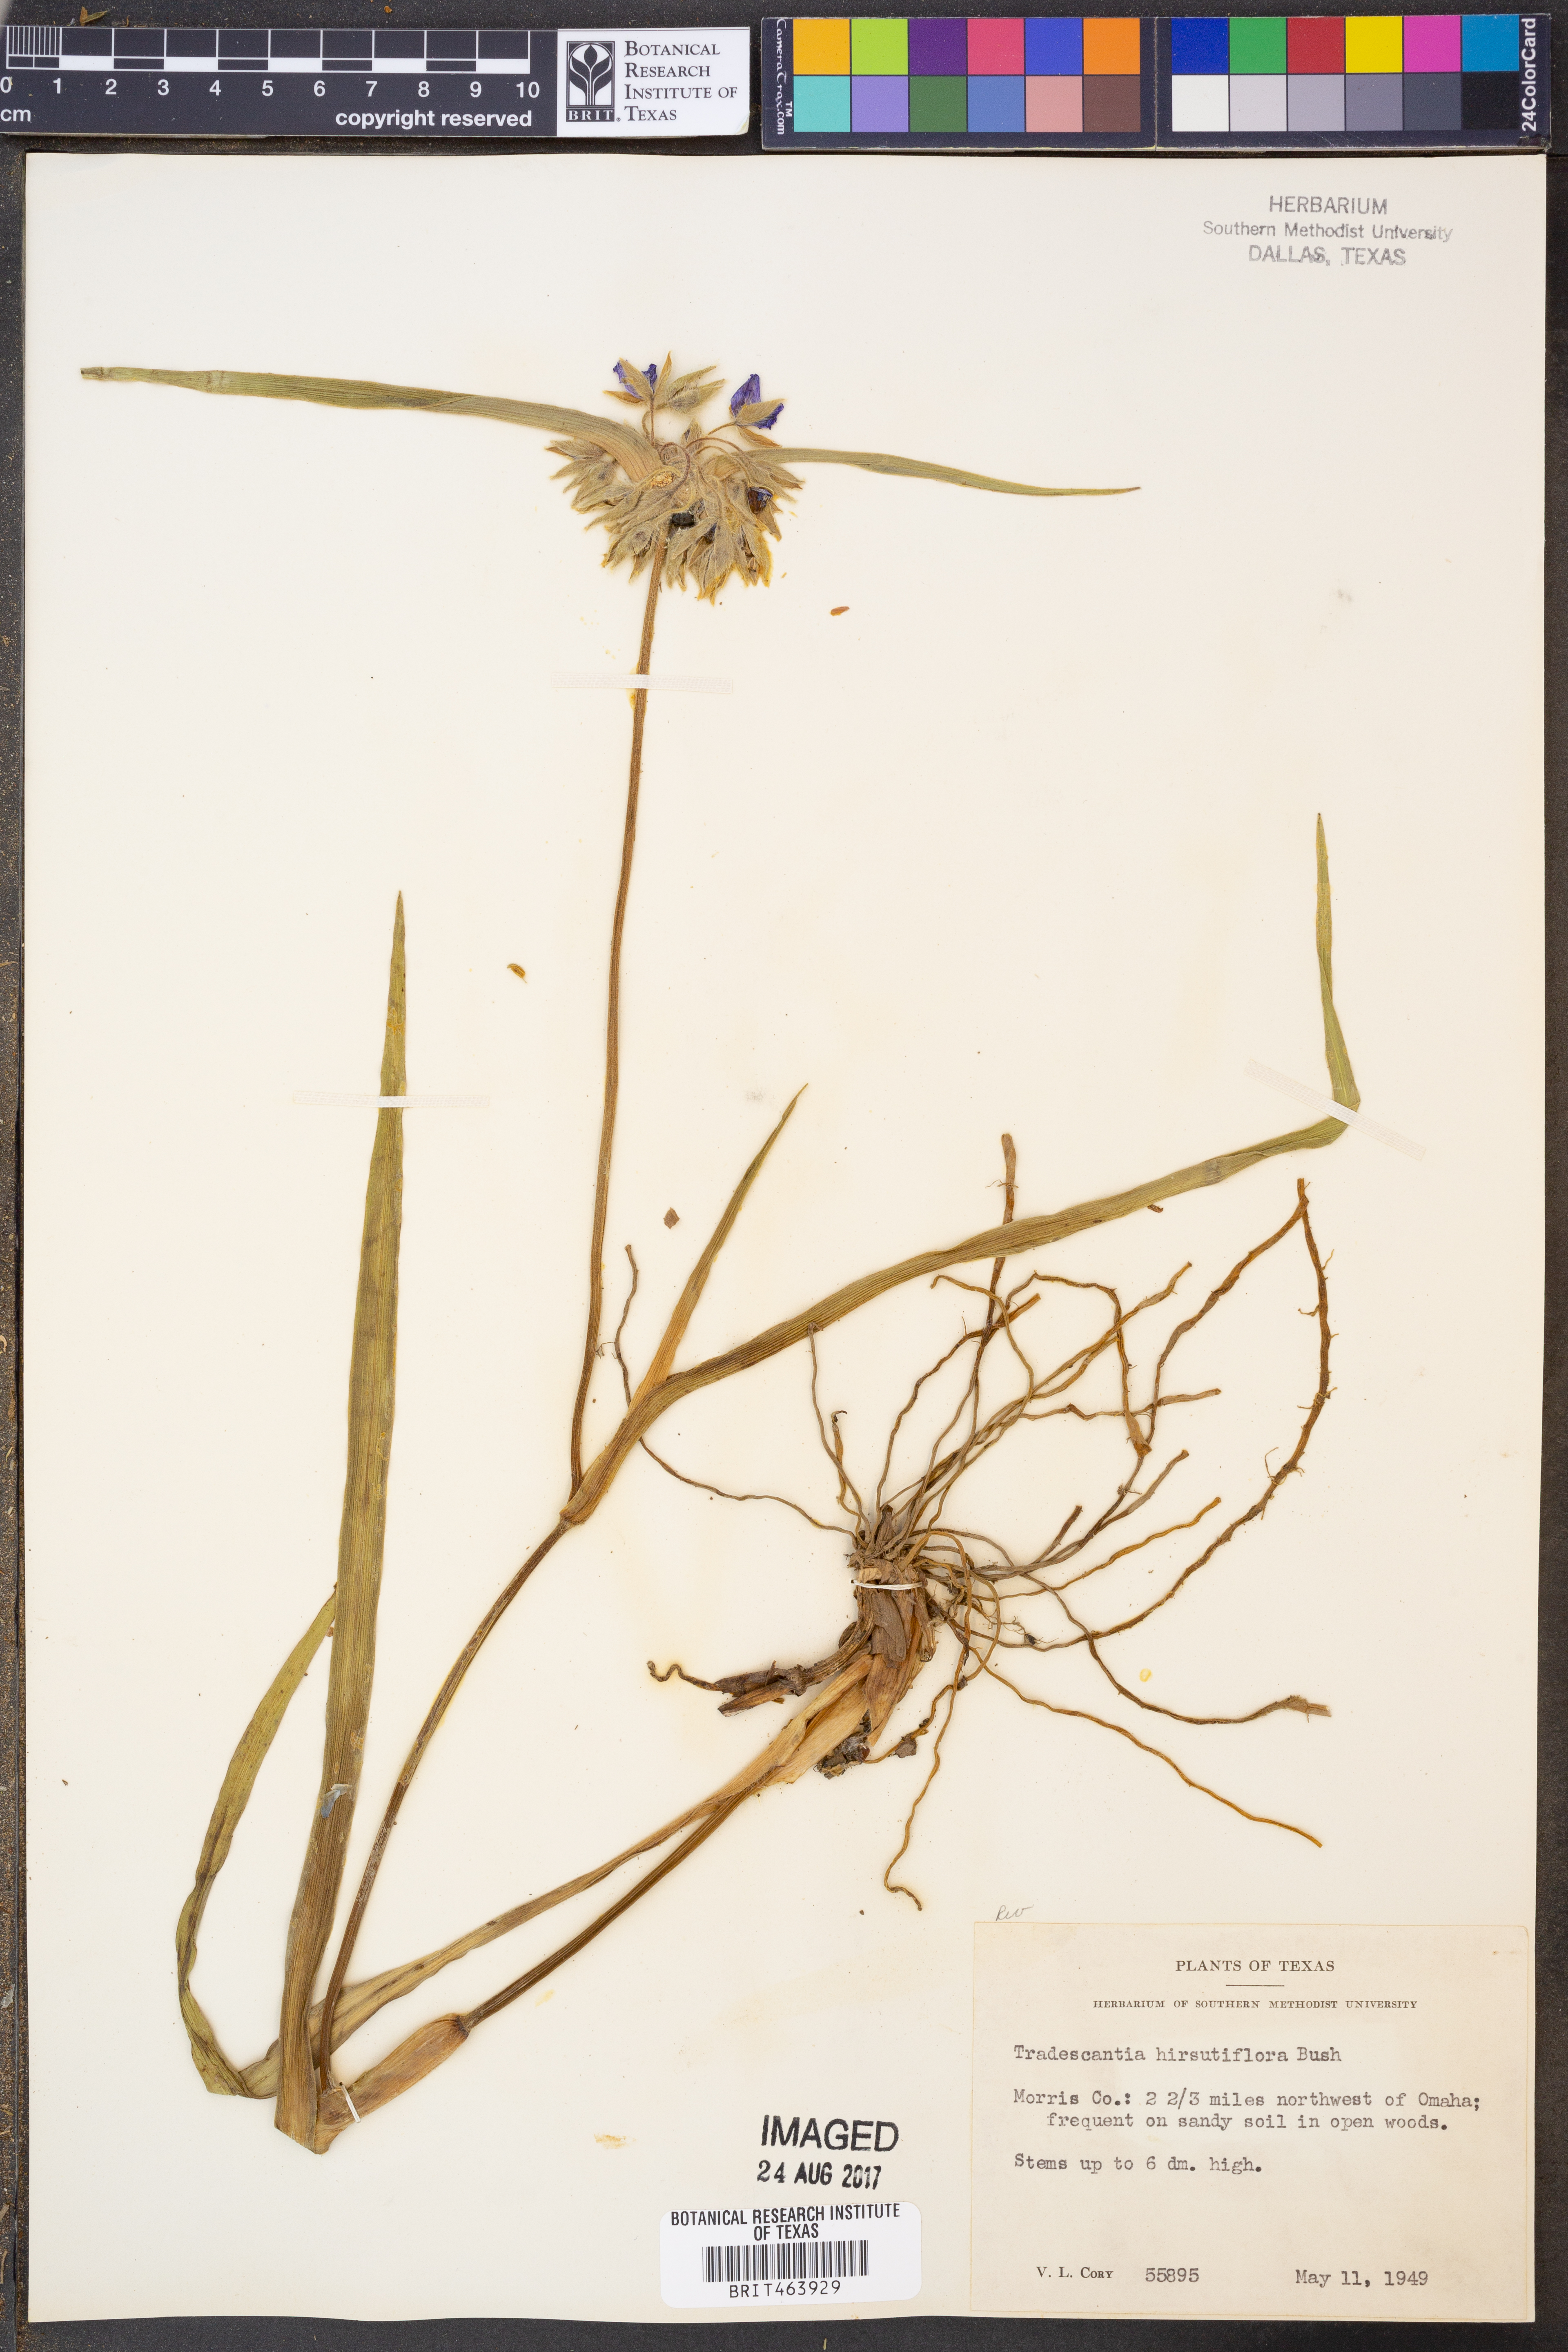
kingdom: Plantae
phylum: Tracheophyta
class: Liliopsida
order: Commelinales
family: Commelinaceae
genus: Tradescantia
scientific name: Tradescantia hirsutiflora
